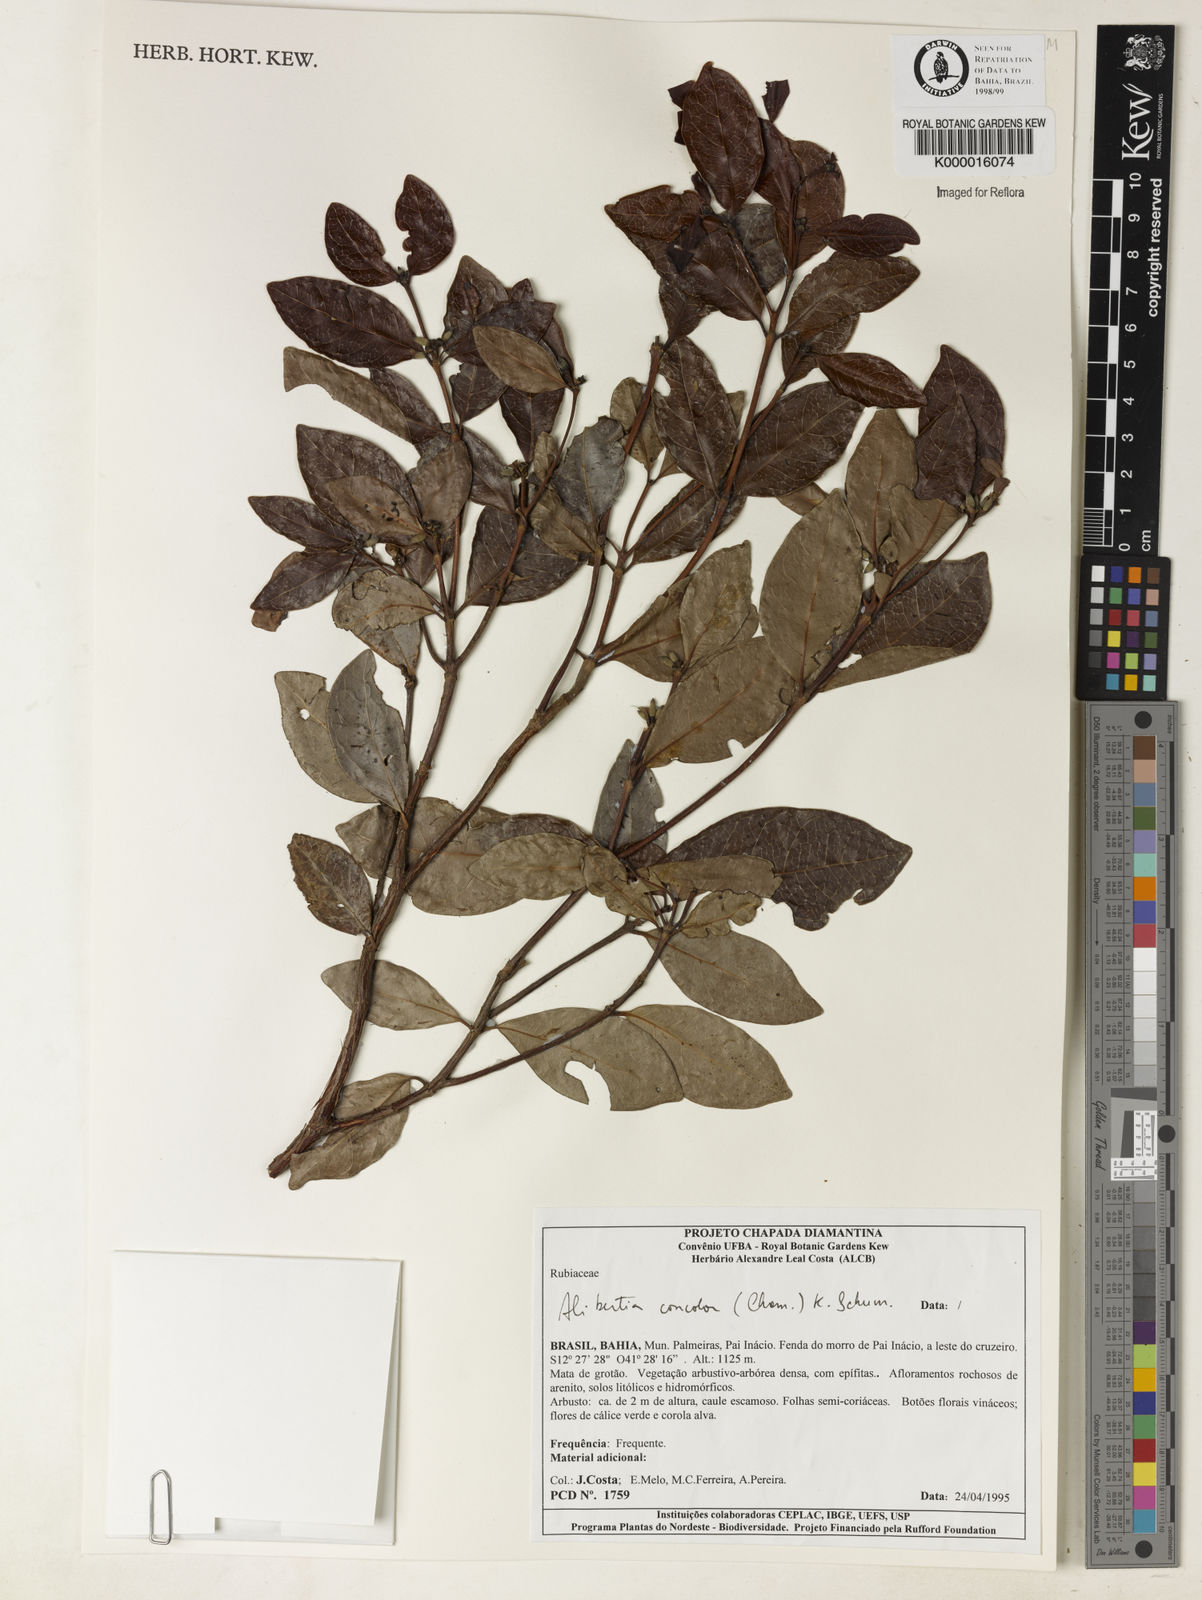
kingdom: Plantae
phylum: Tracheophyta
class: Magnoliopsida
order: Gentianales
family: Rubiaceae
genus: Cordiera
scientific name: Cordiera concolor
